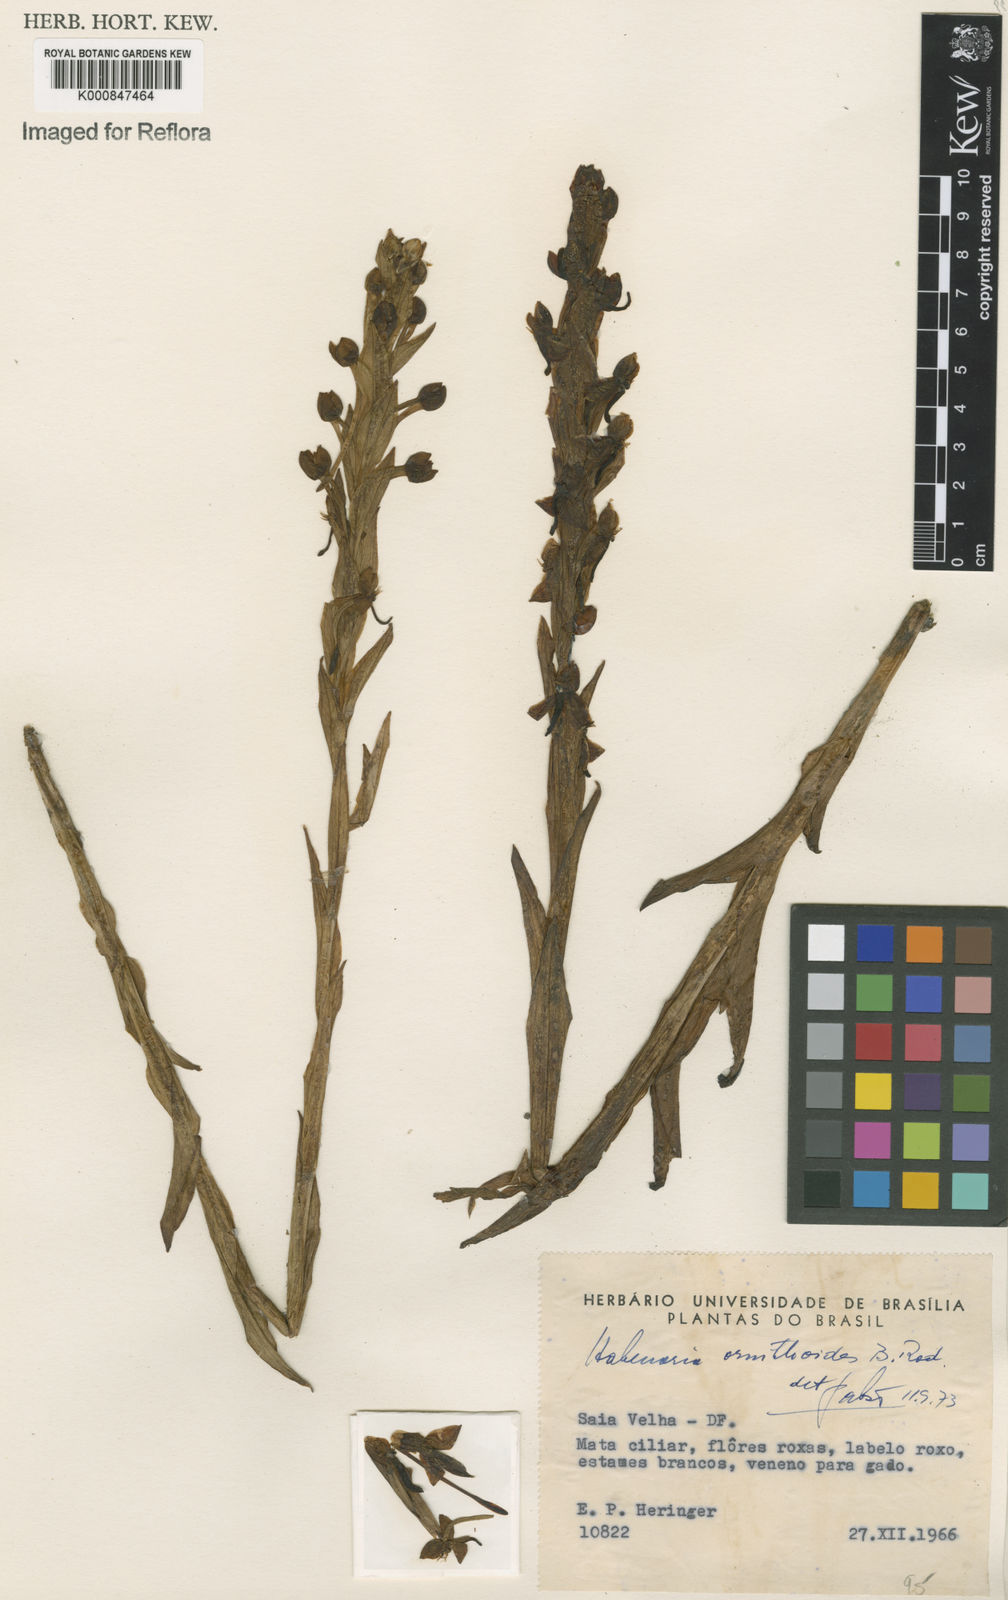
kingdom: Plantae
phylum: Tracheophyta
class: Liliopsida
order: Asparagales
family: Orchidaceae
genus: Habenaria
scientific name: Habenaria obtusa
